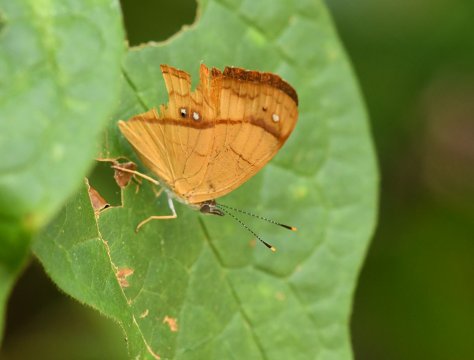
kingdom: Animalia
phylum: Arthropoda
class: Insecta
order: Lepidoptera
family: Nymphalidae
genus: Nica
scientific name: Nica flavilla
